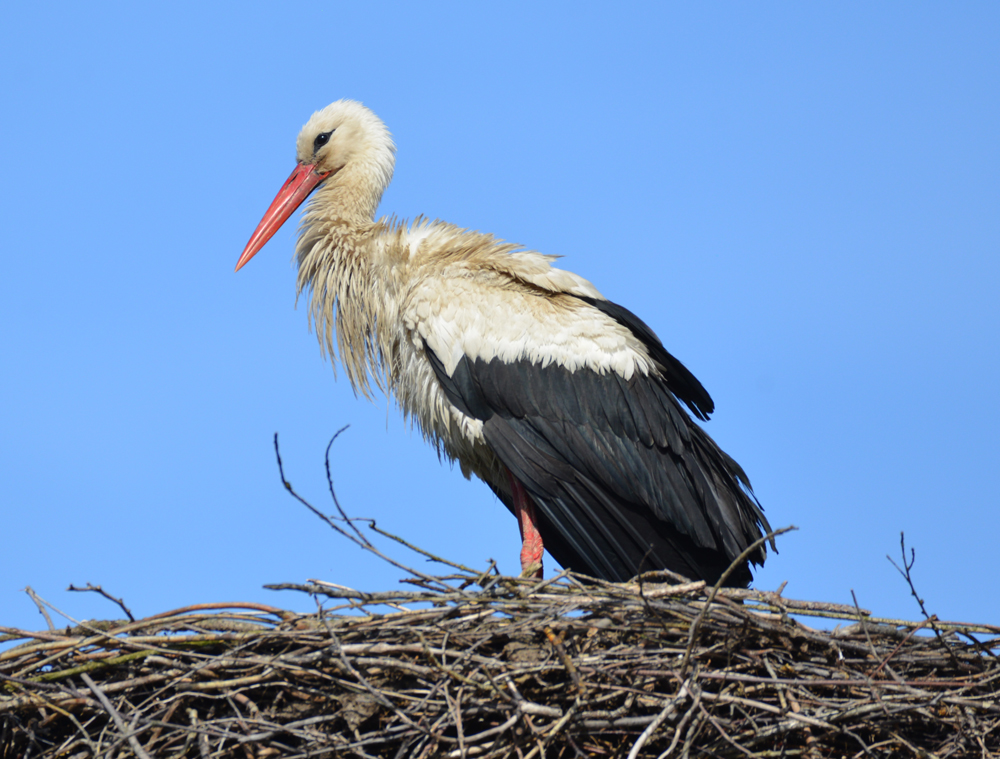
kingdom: Animalia
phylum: Chordata
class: Aves
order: Ciconiiformes
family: Ciconiidae
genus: Ciconia
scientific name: Ciconia ciconia
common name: White stork
